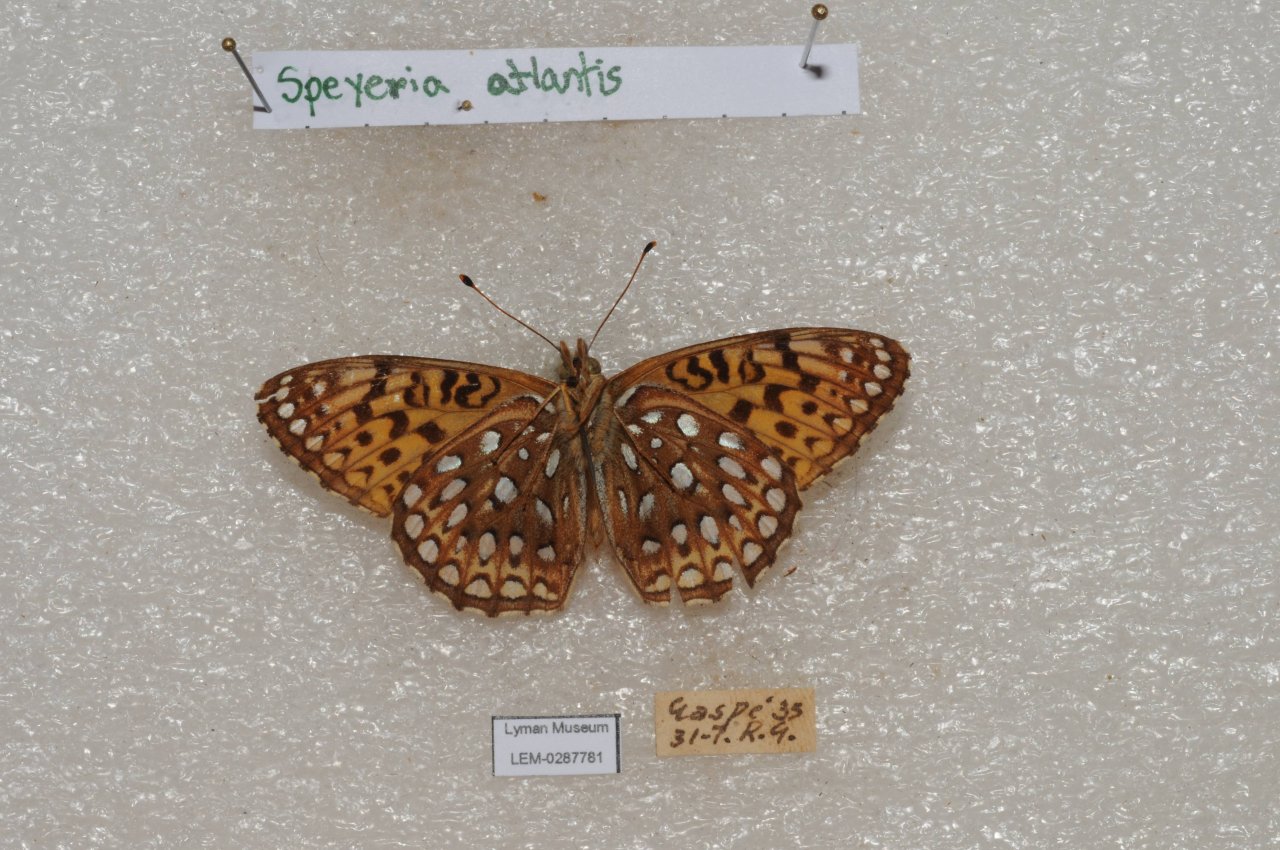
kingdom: Animalia
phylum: Arthropoda
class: Insecta
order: Lepidoptera
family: Nymphalidae
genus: Speyeria
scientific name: Speyeria atlantis
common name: Atlantis Fritillary
